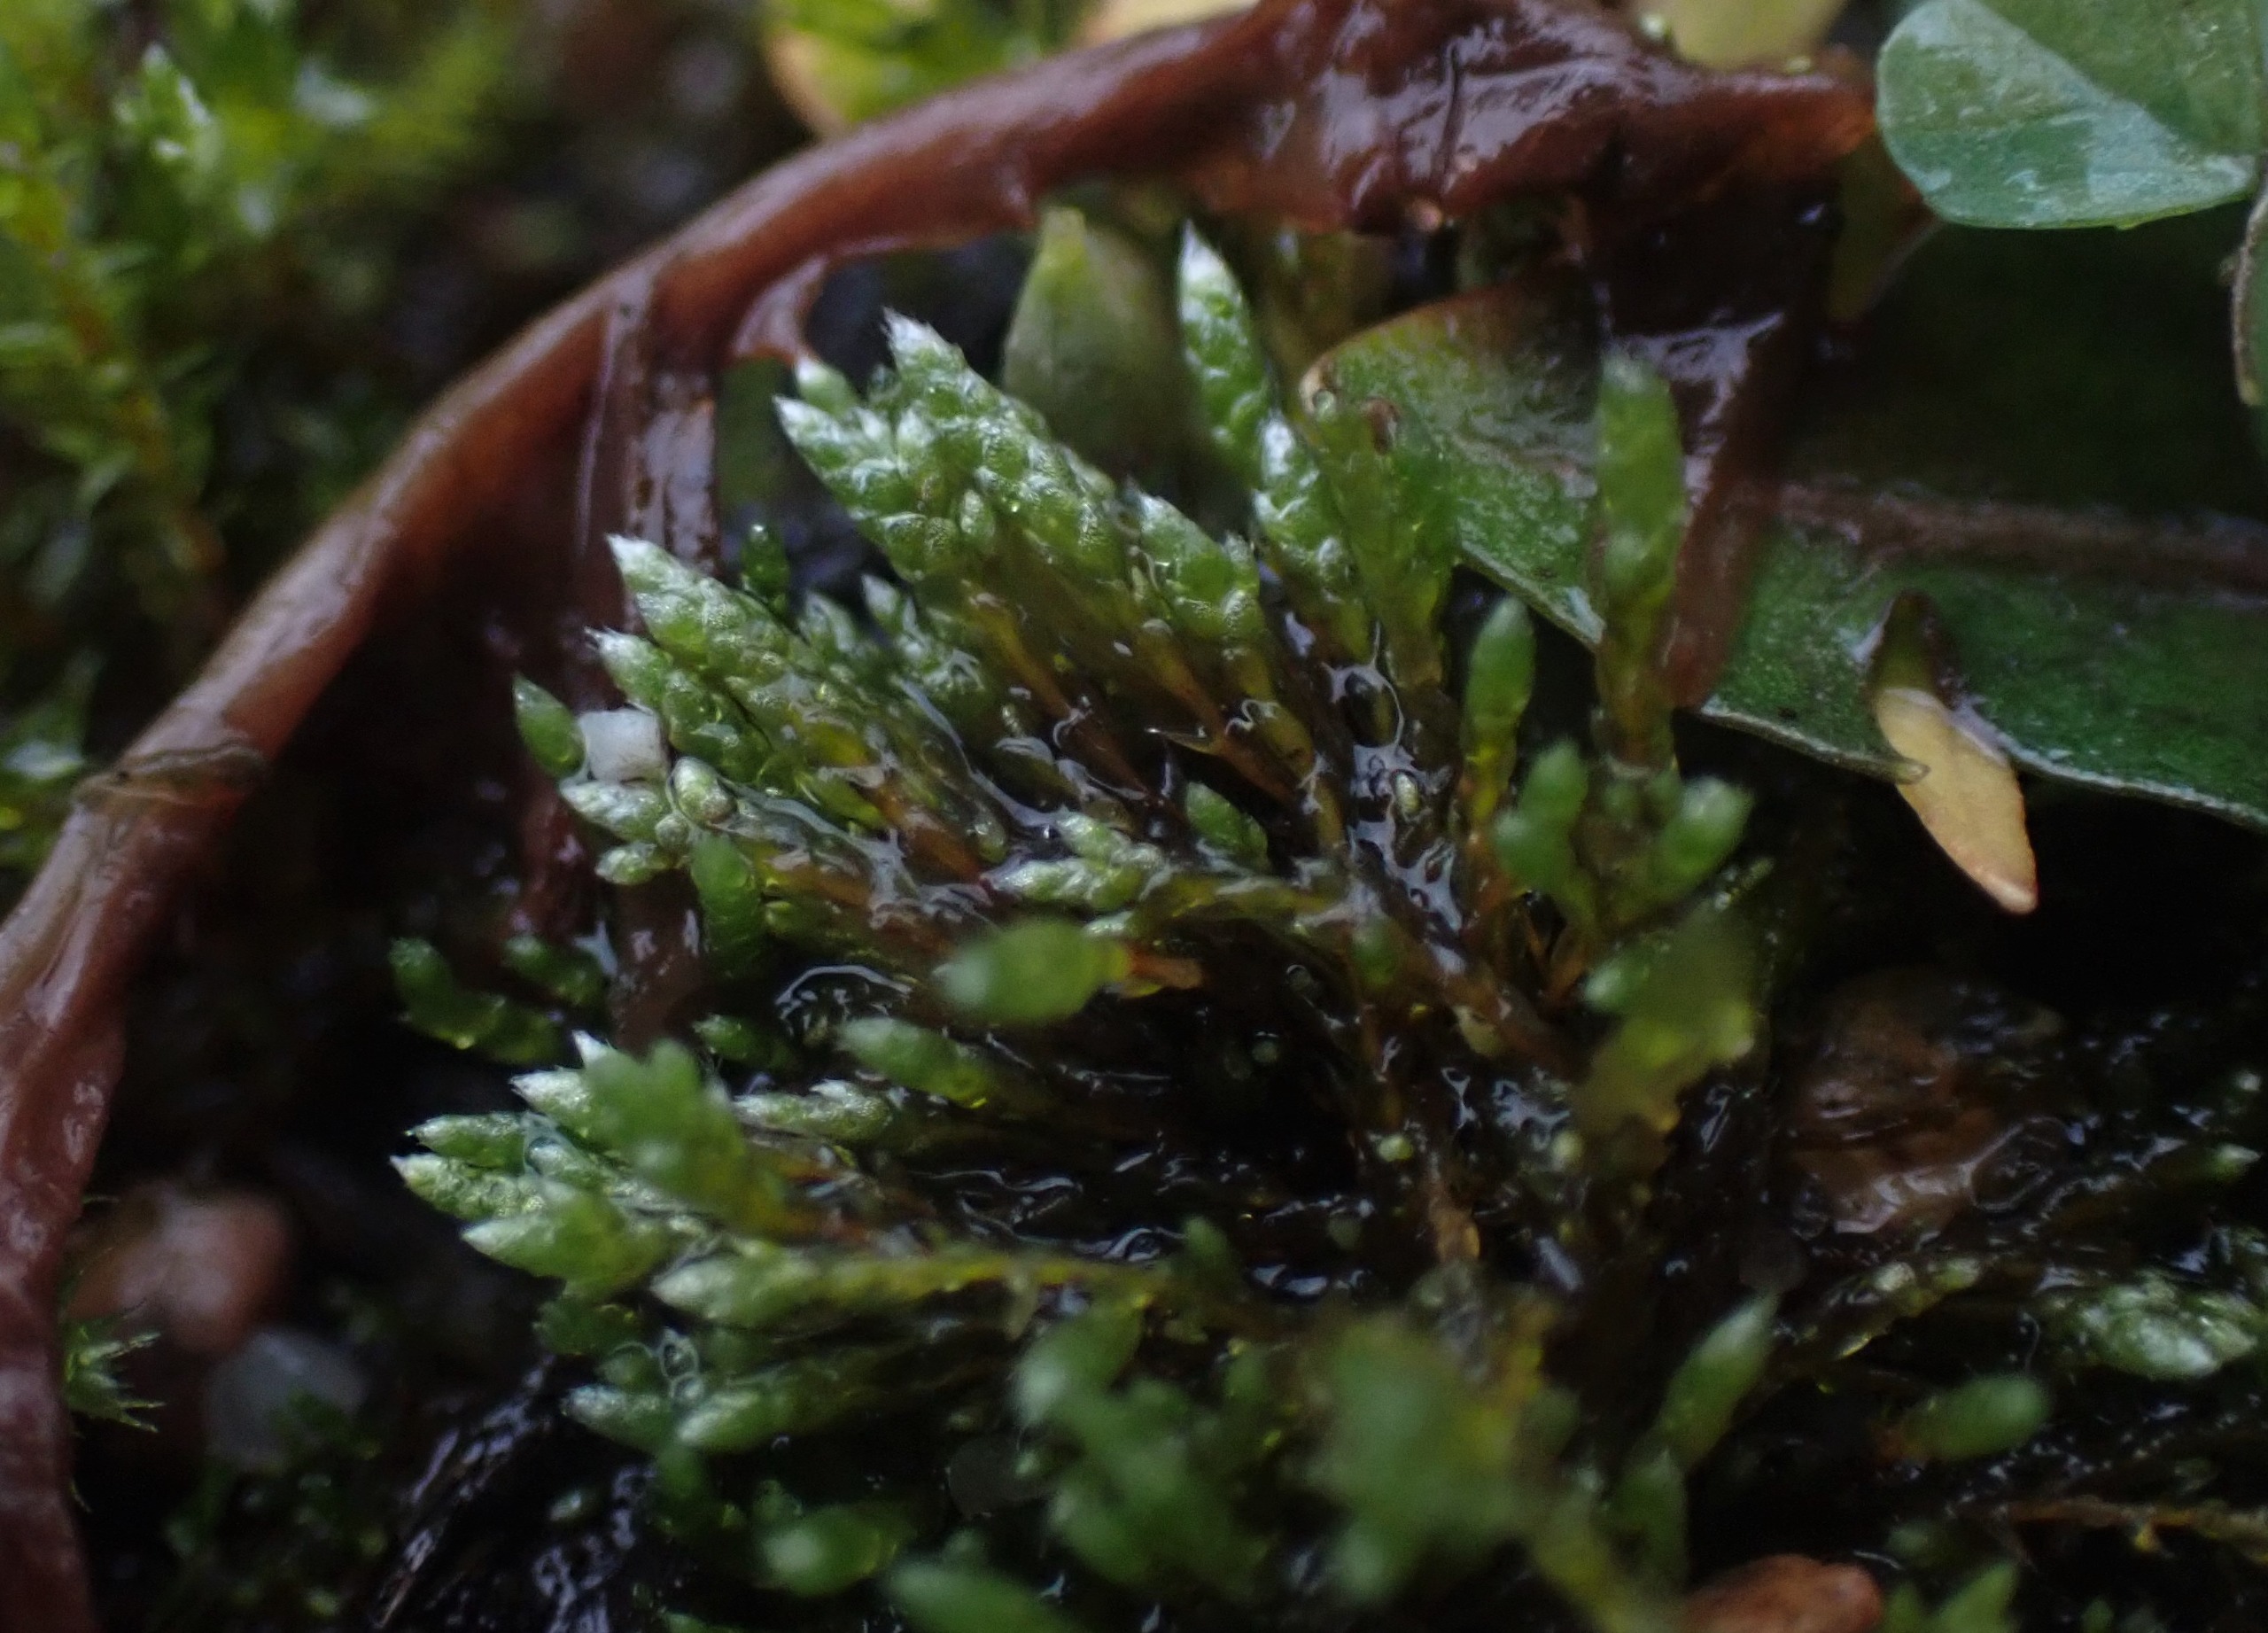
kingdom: Plantae
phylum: Bryophyta
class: Bryopsida
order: Bryales
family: Bryaceae
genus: Bryum
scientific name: Bryum argenteum
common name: Sølv-bryum
